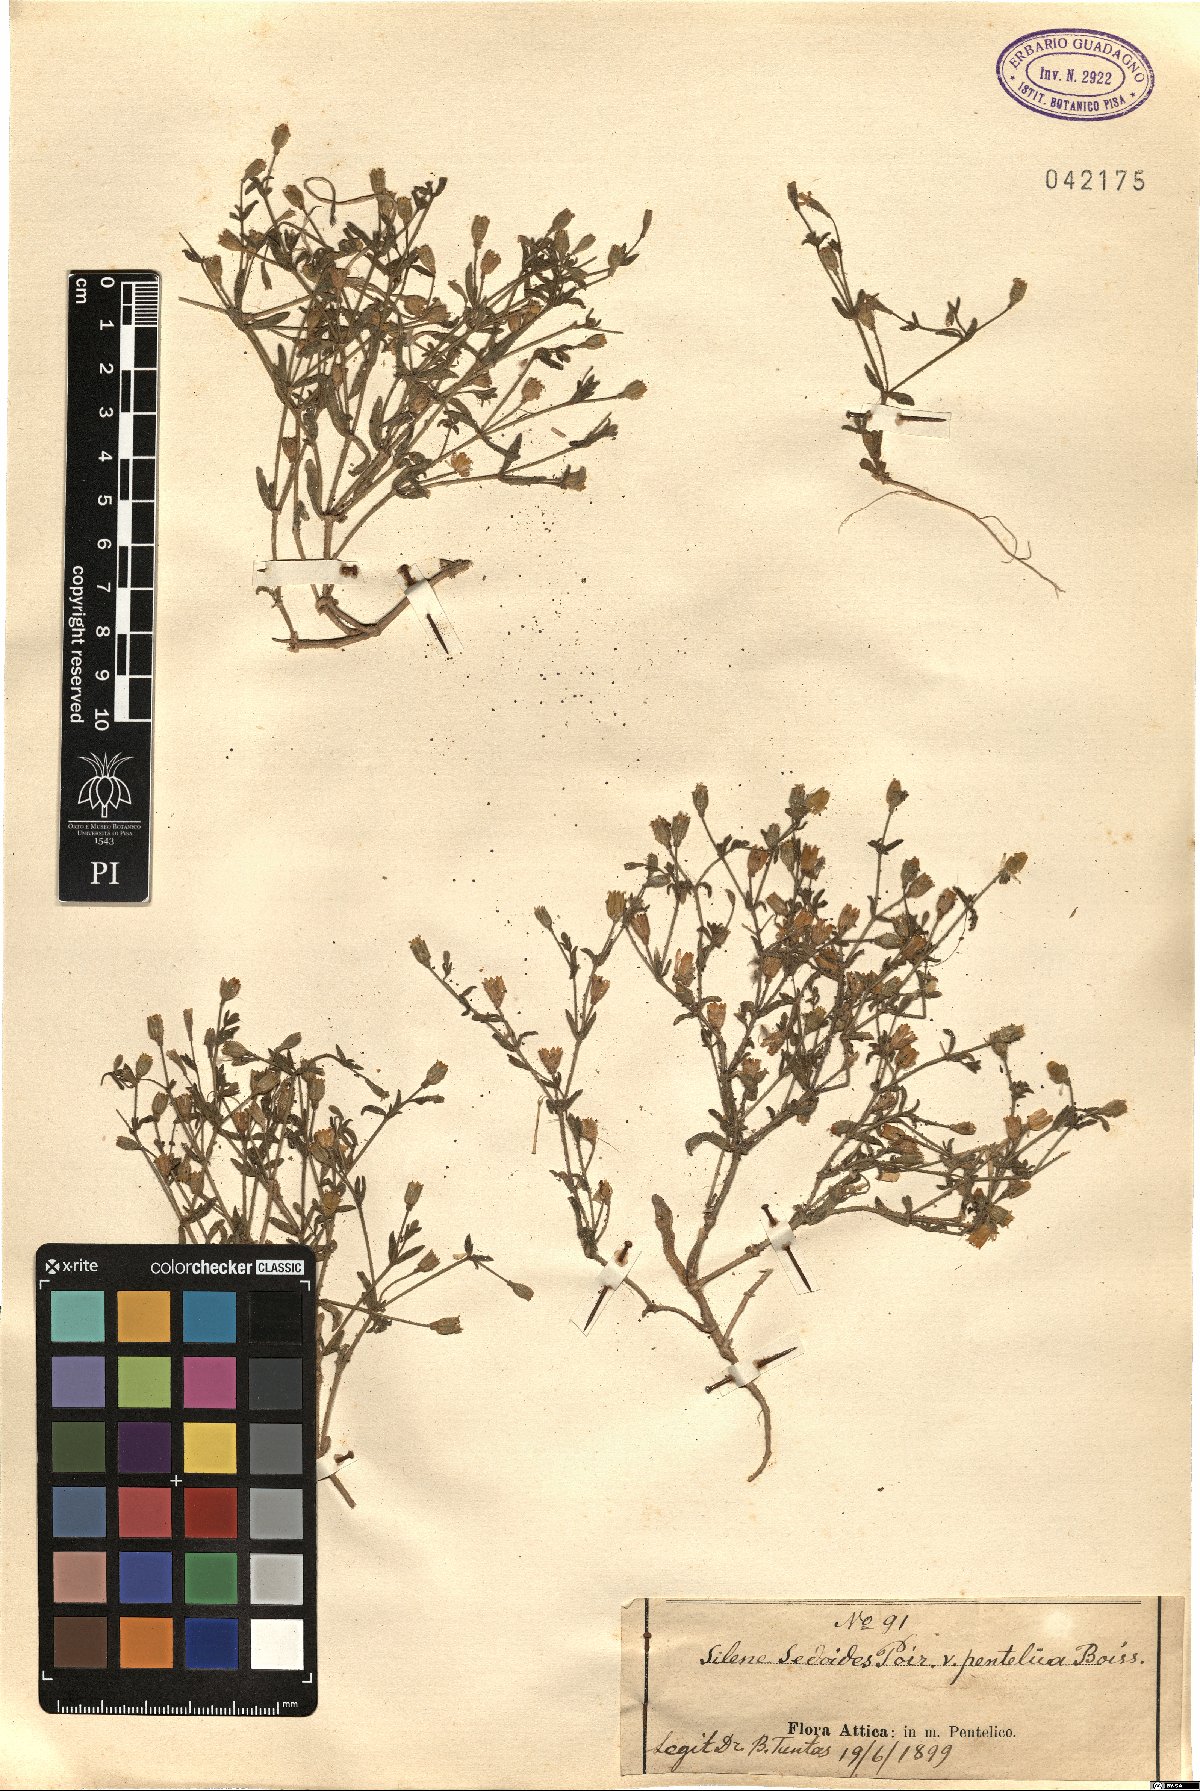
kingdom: Plantae
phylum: Tracheophyta
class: Magnoliopsida
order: Caryophyllales
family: Caryophyllaceae
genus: Silene
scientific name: Silene pentelica
